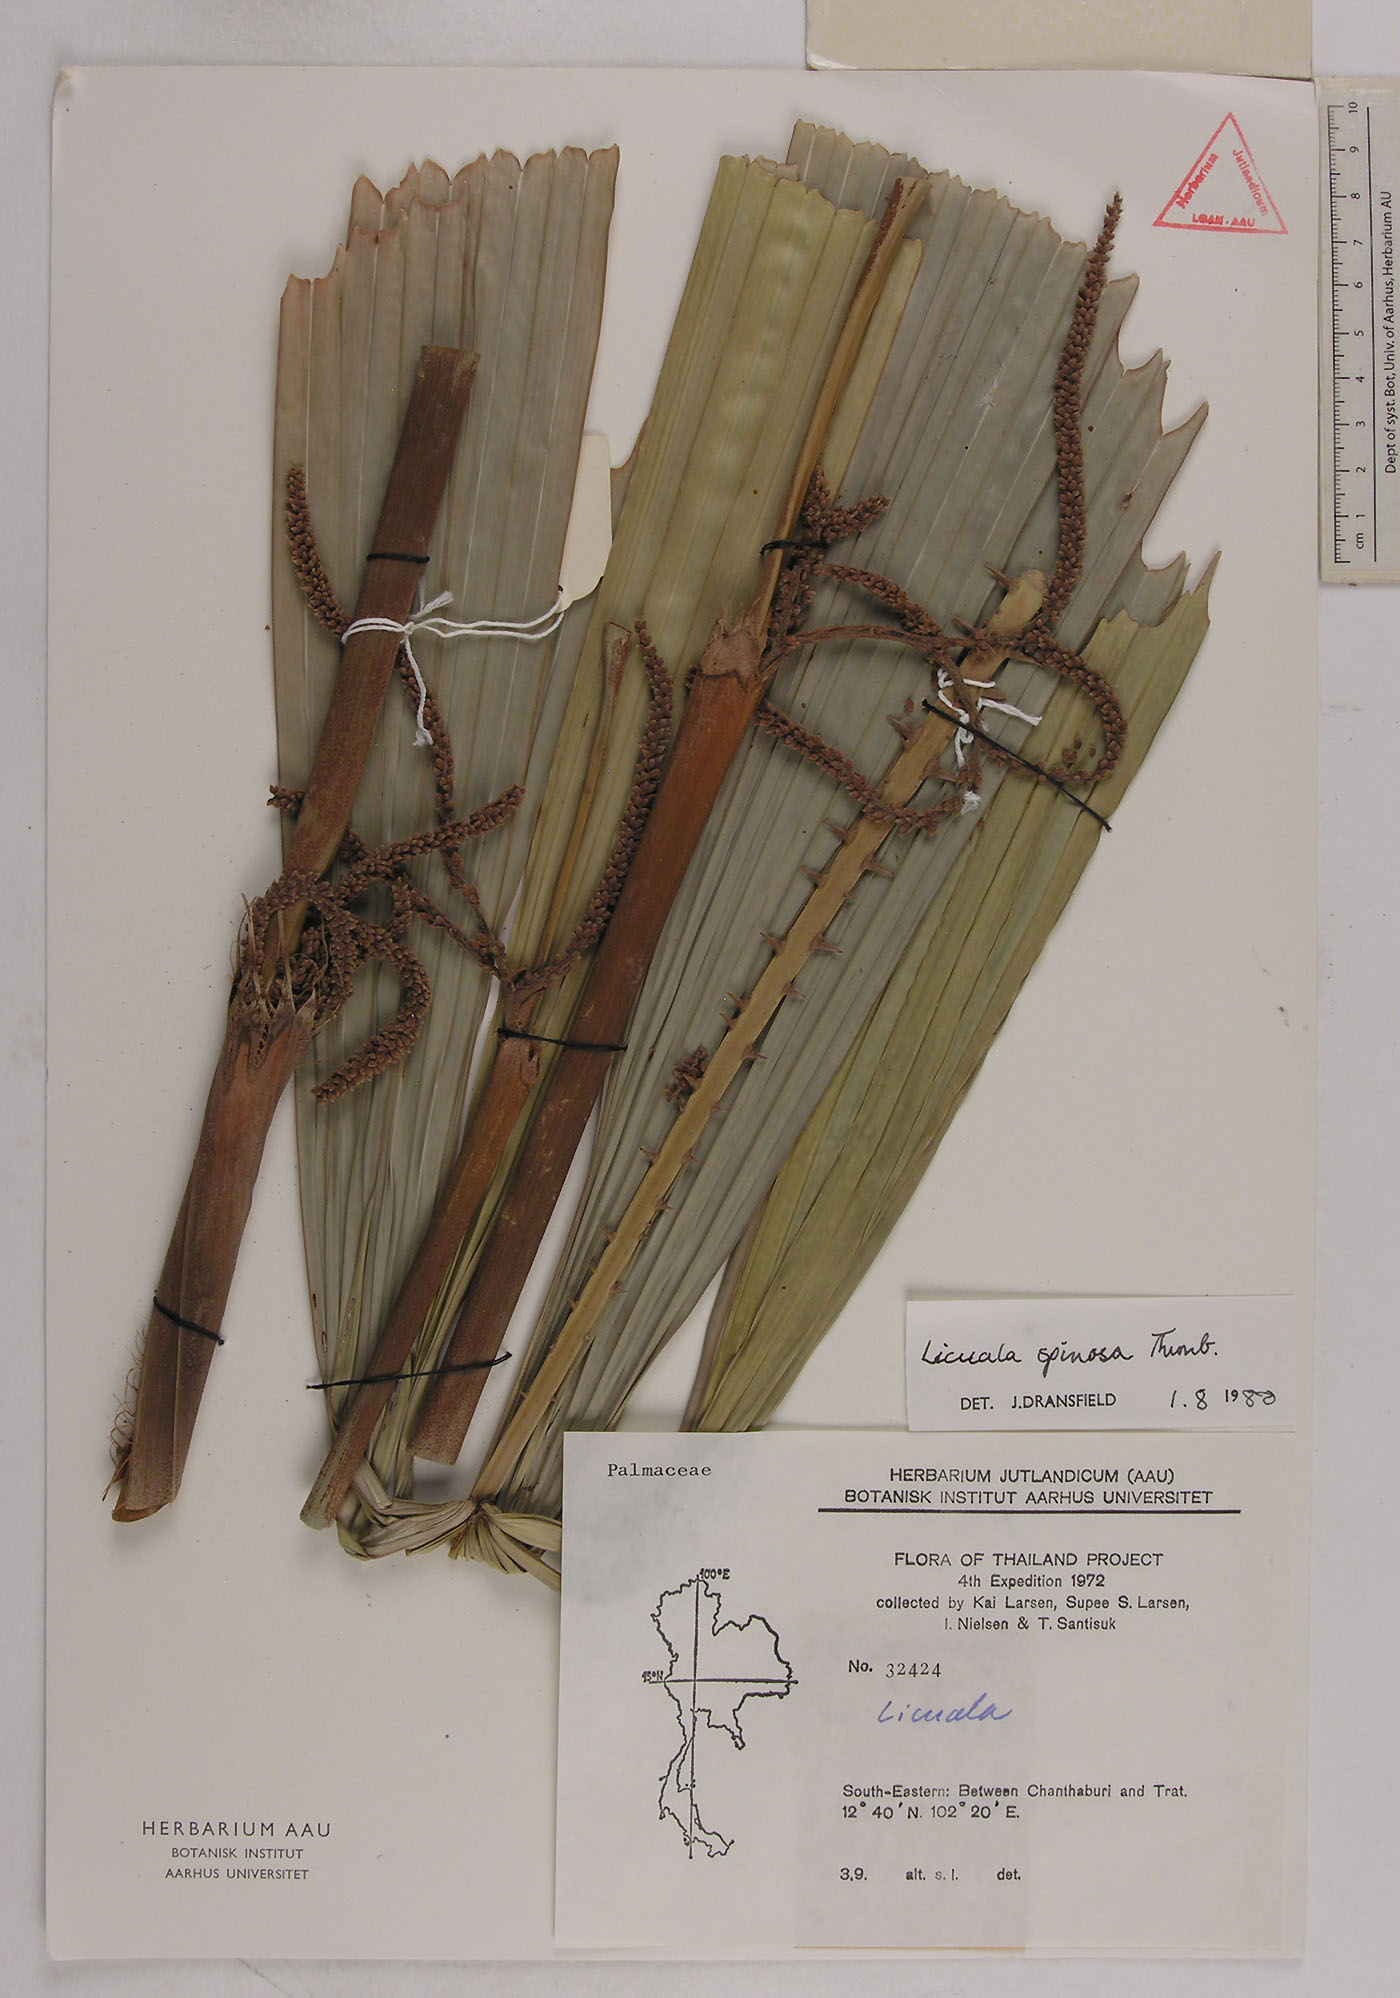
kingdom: Plantae
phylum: Tracheophyta
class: Liliopsida
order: Arecales
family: Arecaceae
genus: Licuala
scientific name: Licuala spinosa
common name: Mangrove fan palm
